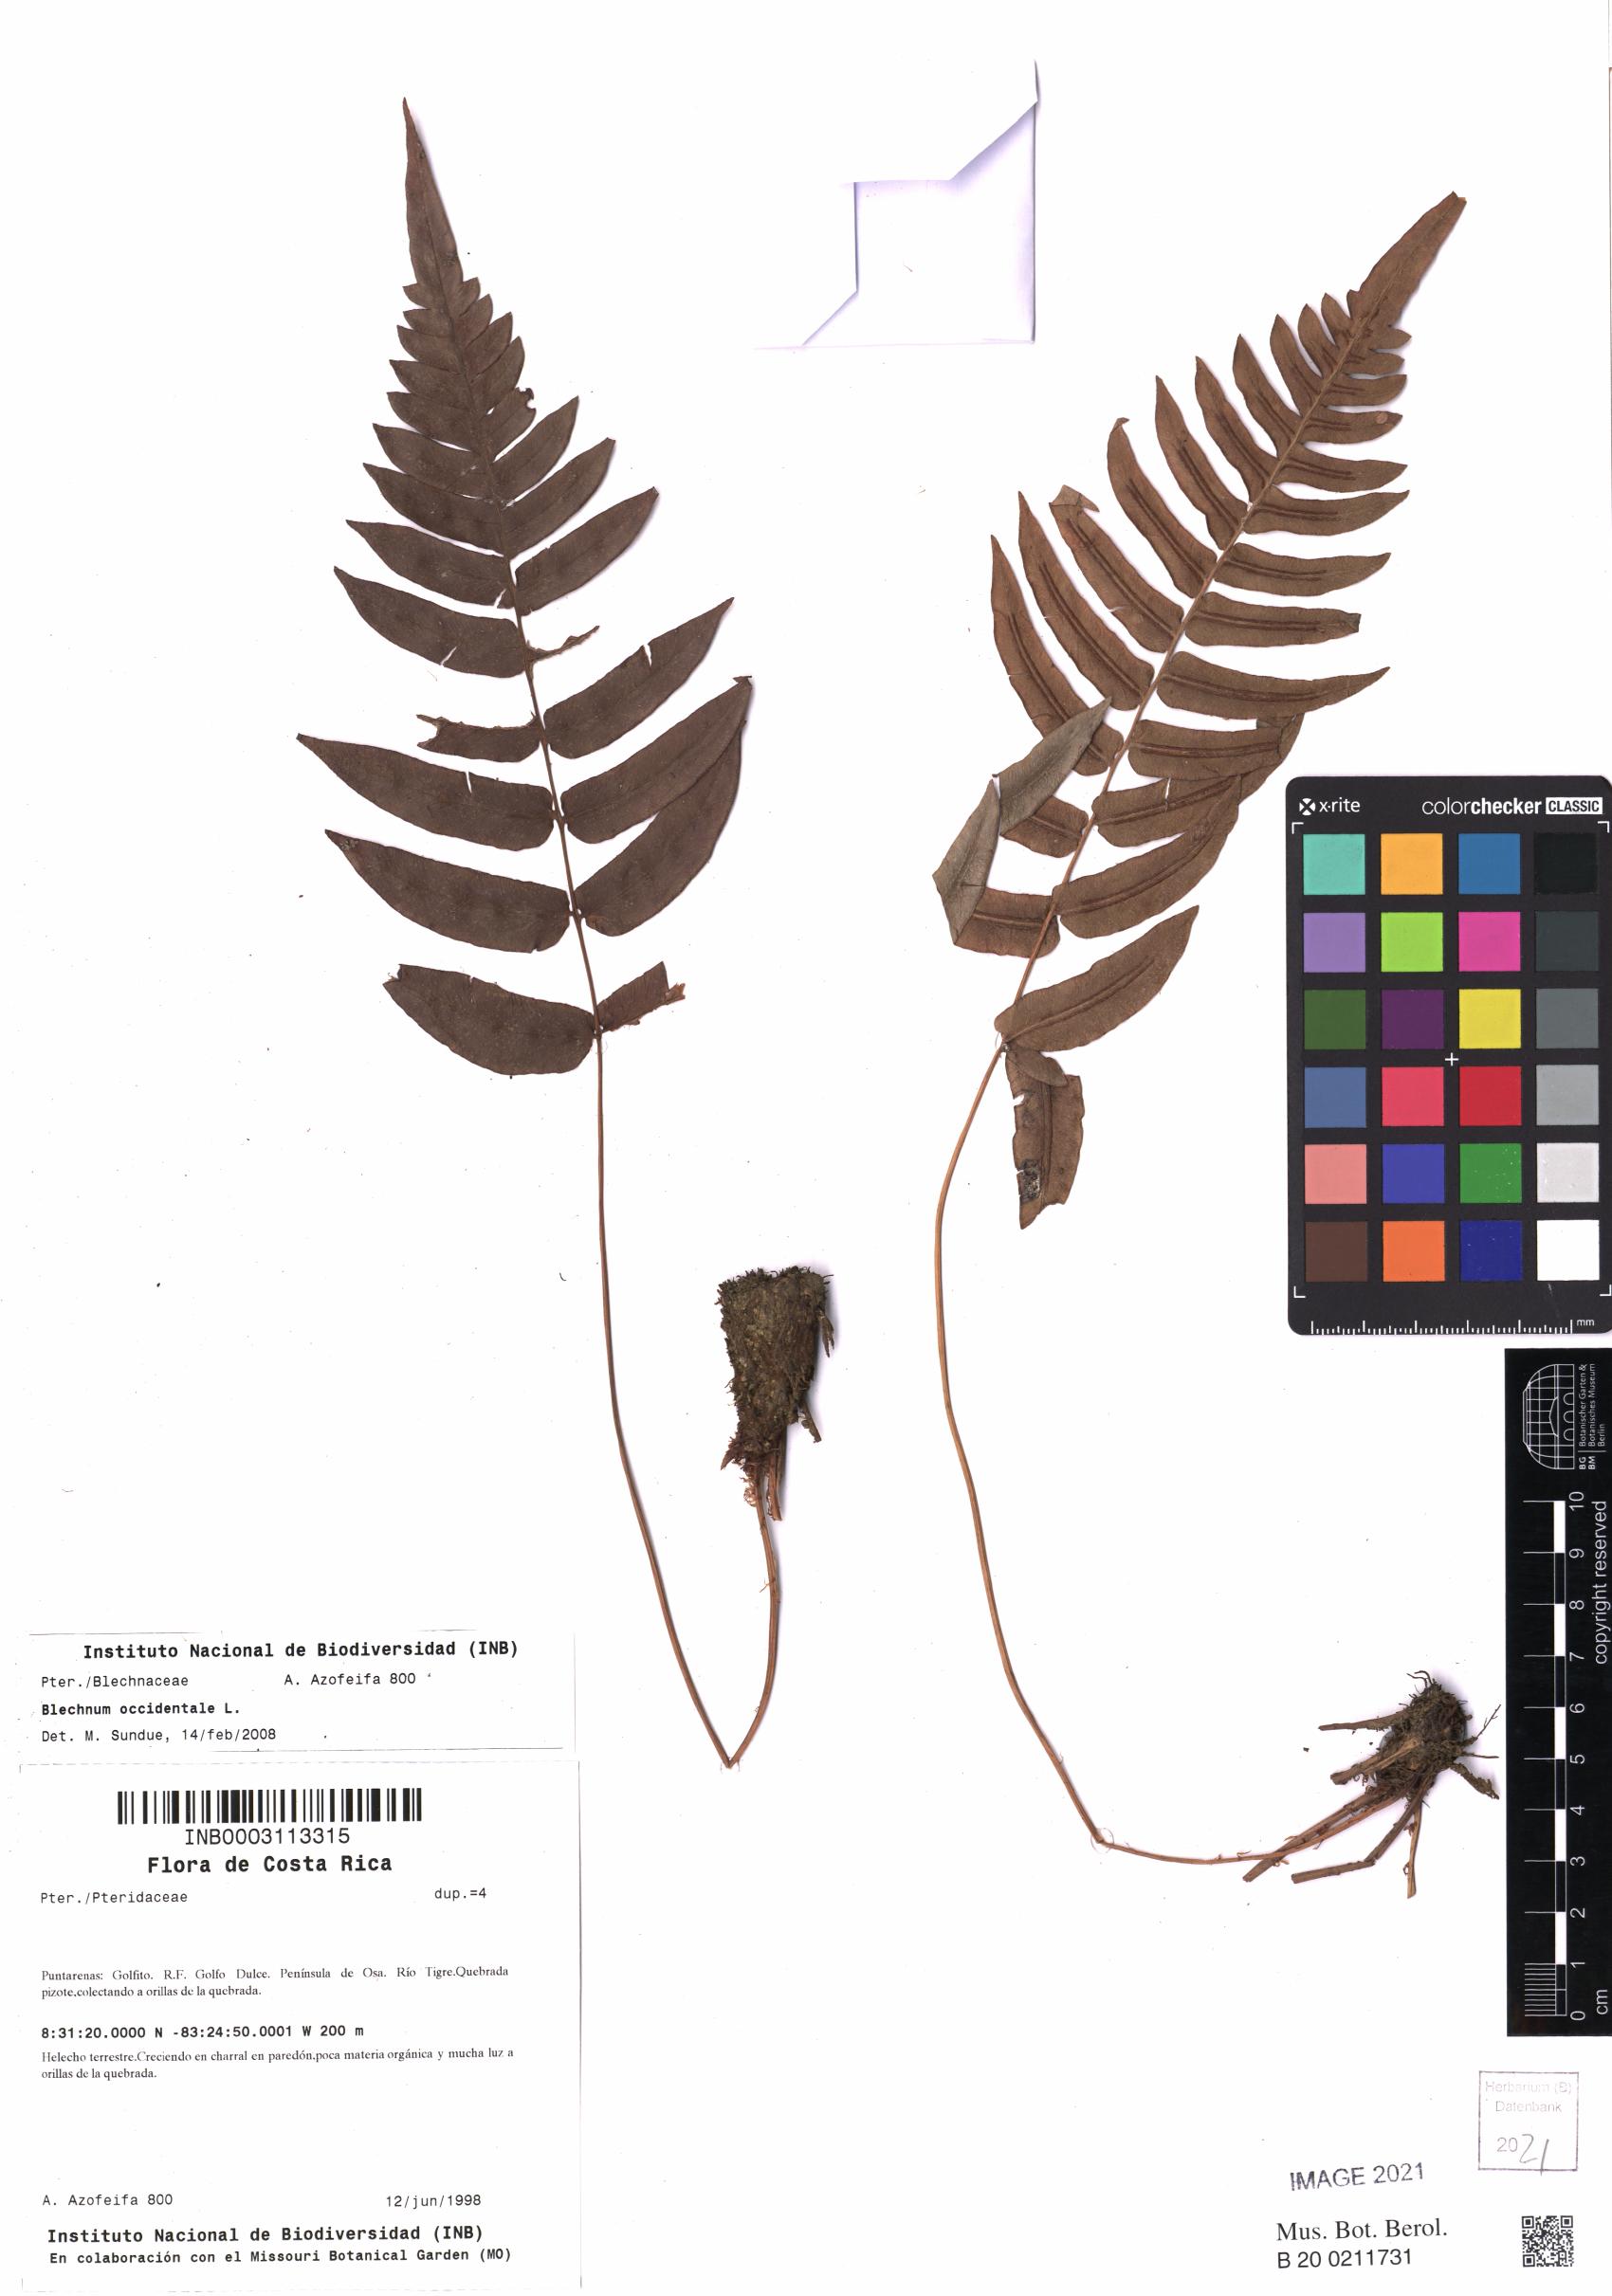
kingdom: Plantae
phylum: Tracheophyta
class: Polypodiopsida
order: Polypodiales
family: Blechnaceae
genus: Blechnum
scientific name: Blechnum occidentale
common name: Hammock fern
